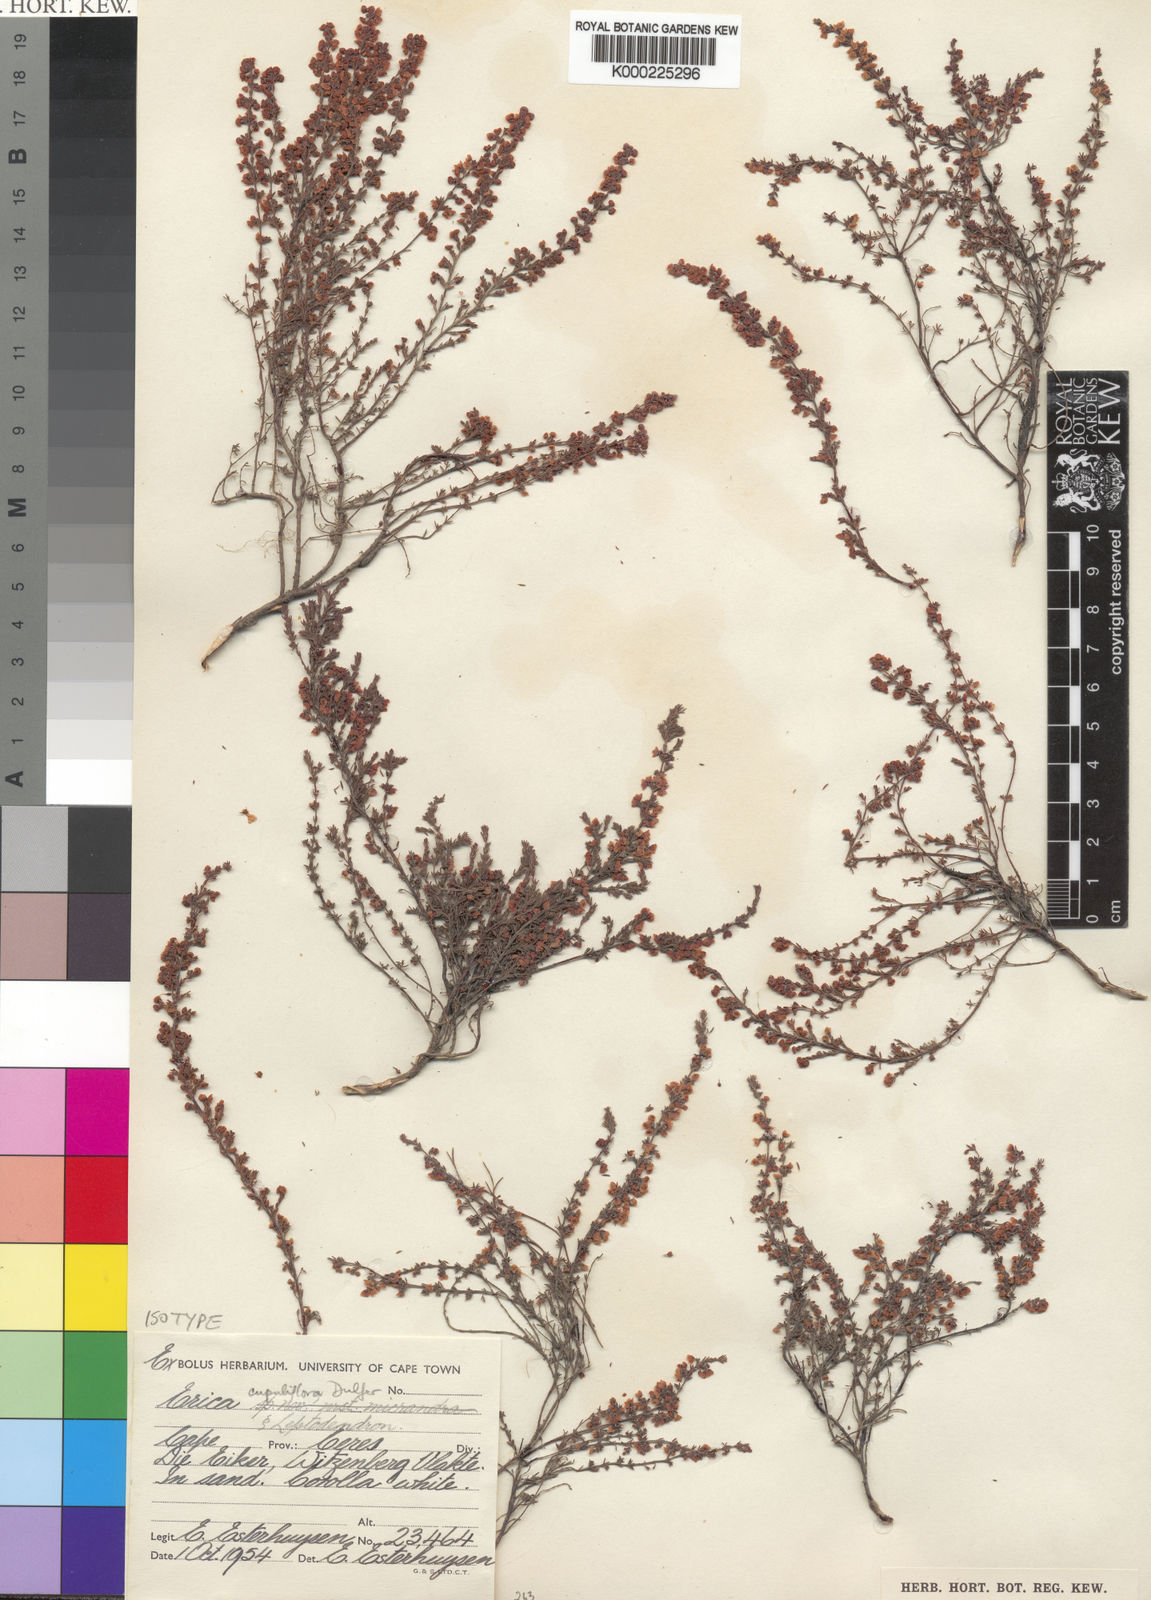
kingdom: Plantae
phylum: Tracheophyta
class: Magnoliopsida
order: Ericales
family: Ericaceae
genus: Erica
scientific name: Erica
